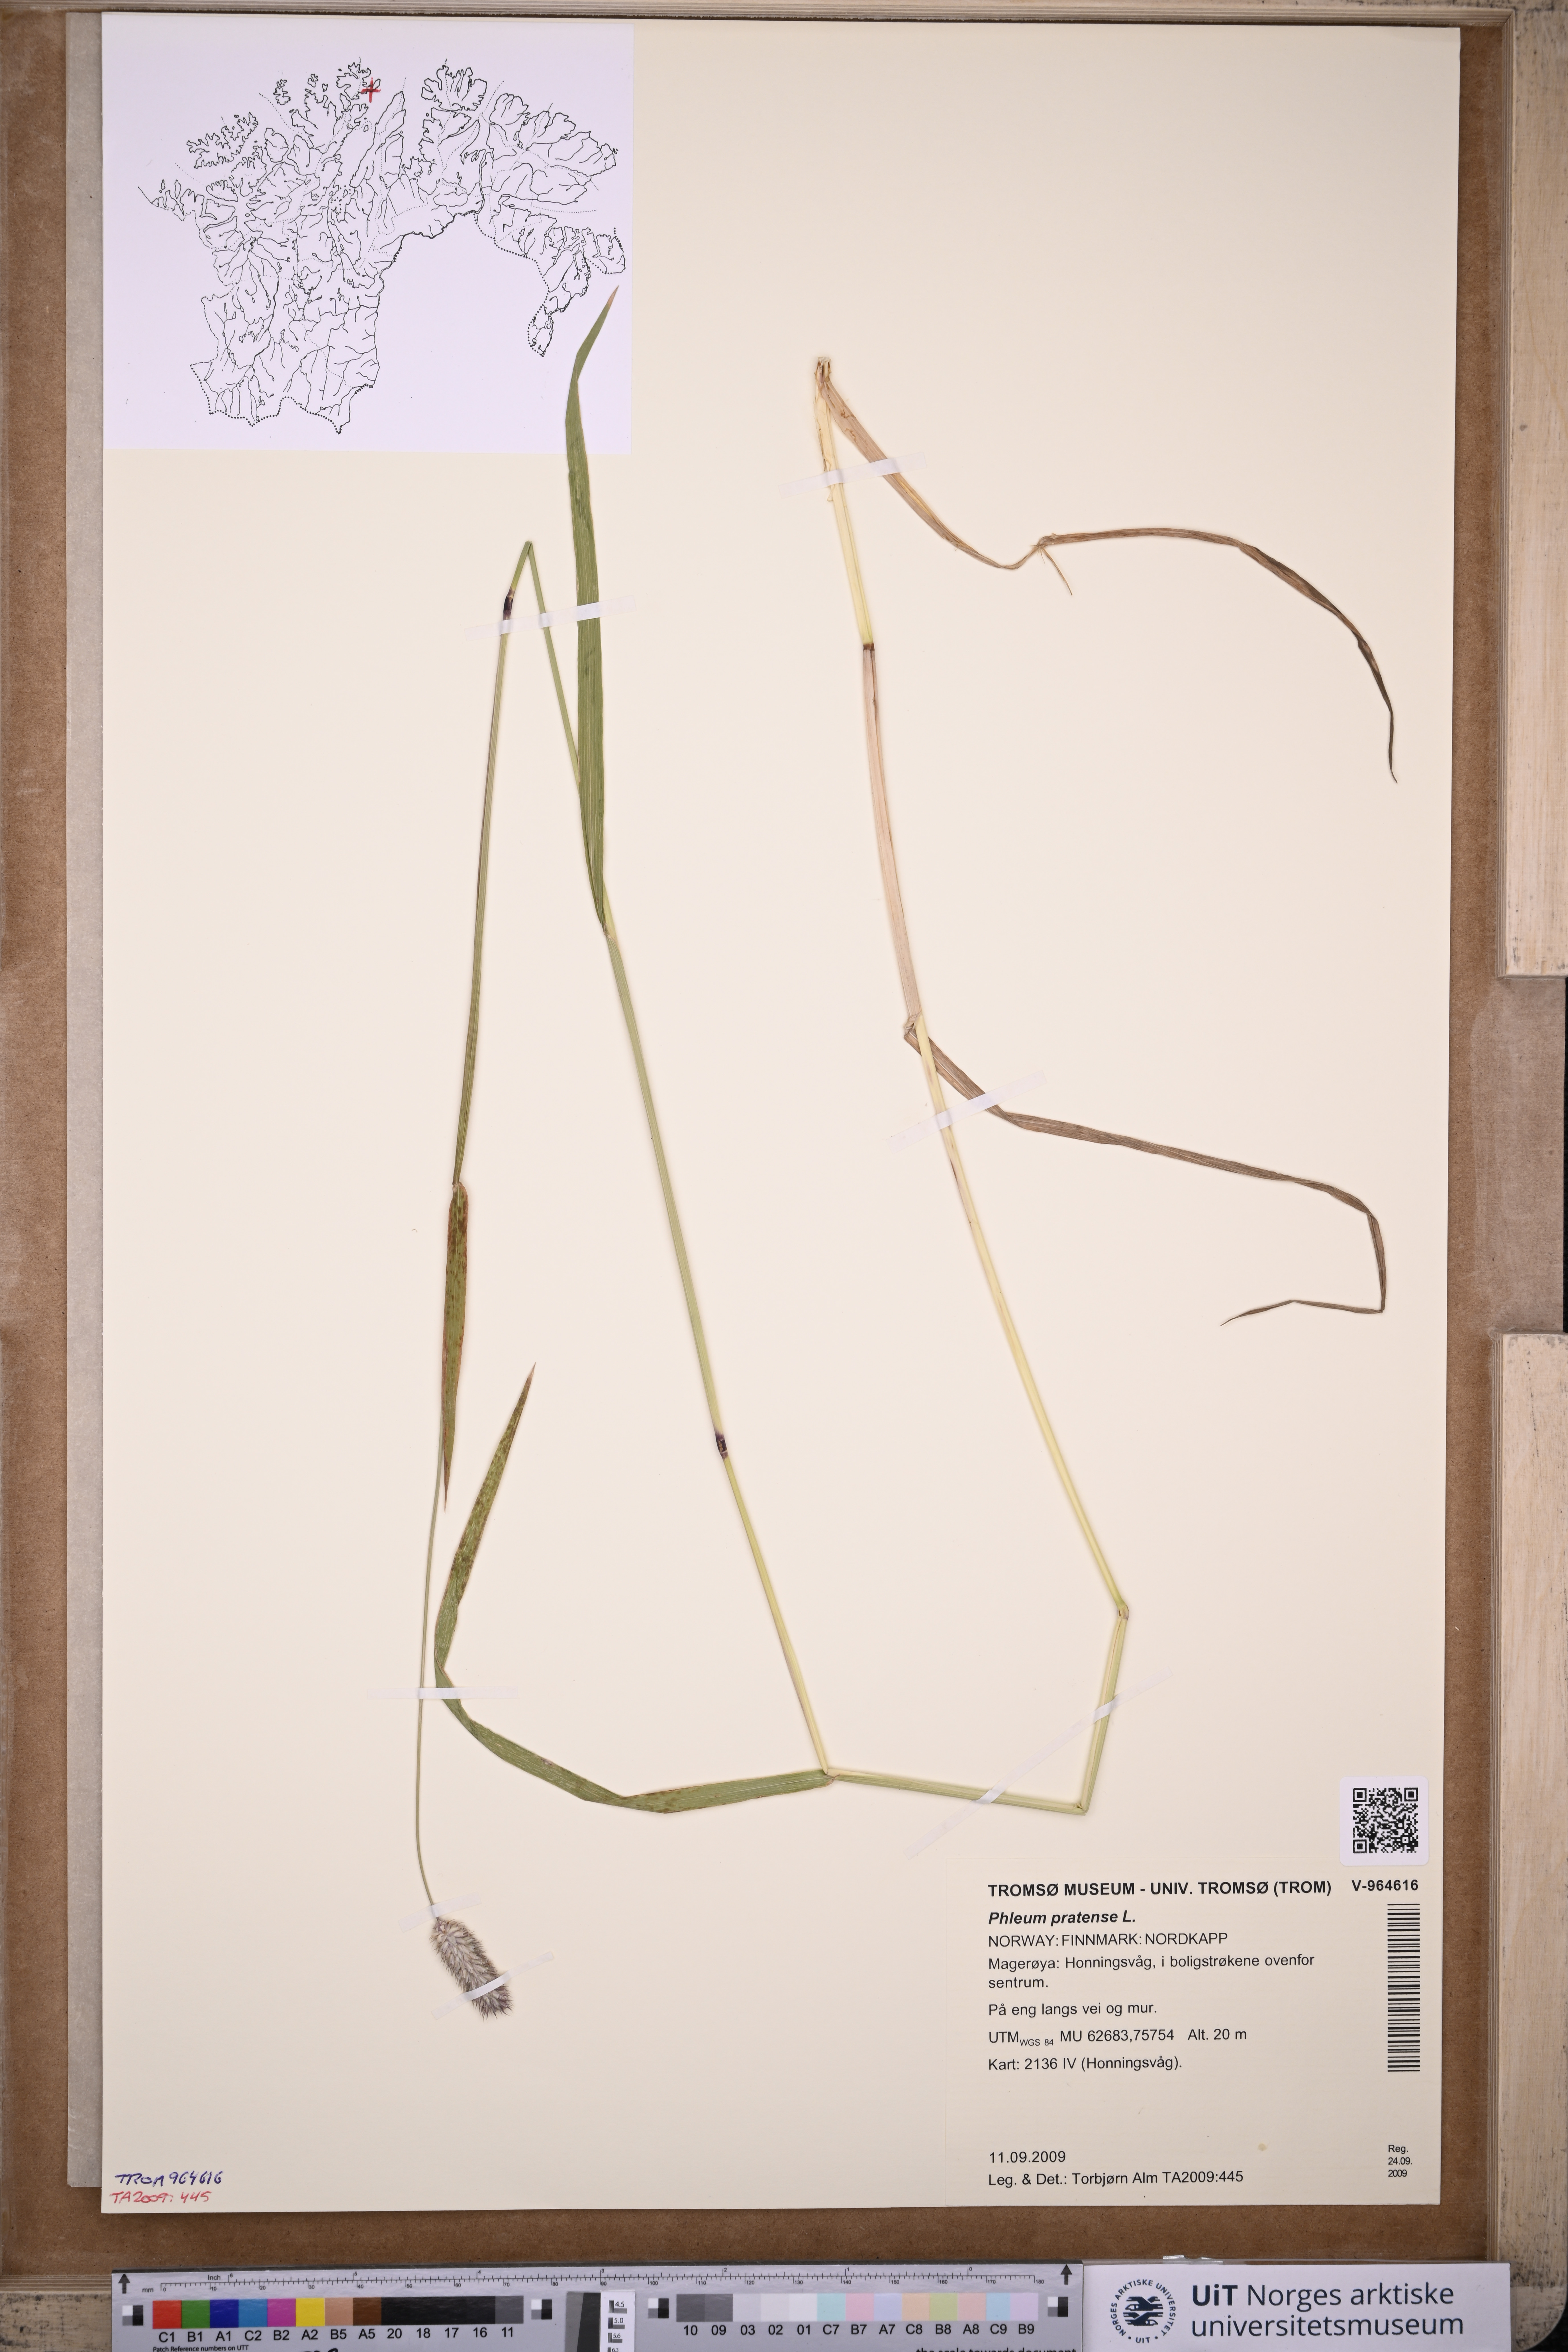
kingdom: Plantae
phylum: Tracheophyta
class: Liliopsida
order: Poales
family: Poaceae
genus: Phleum
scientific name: Phleum pratense
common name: Timothy grass
